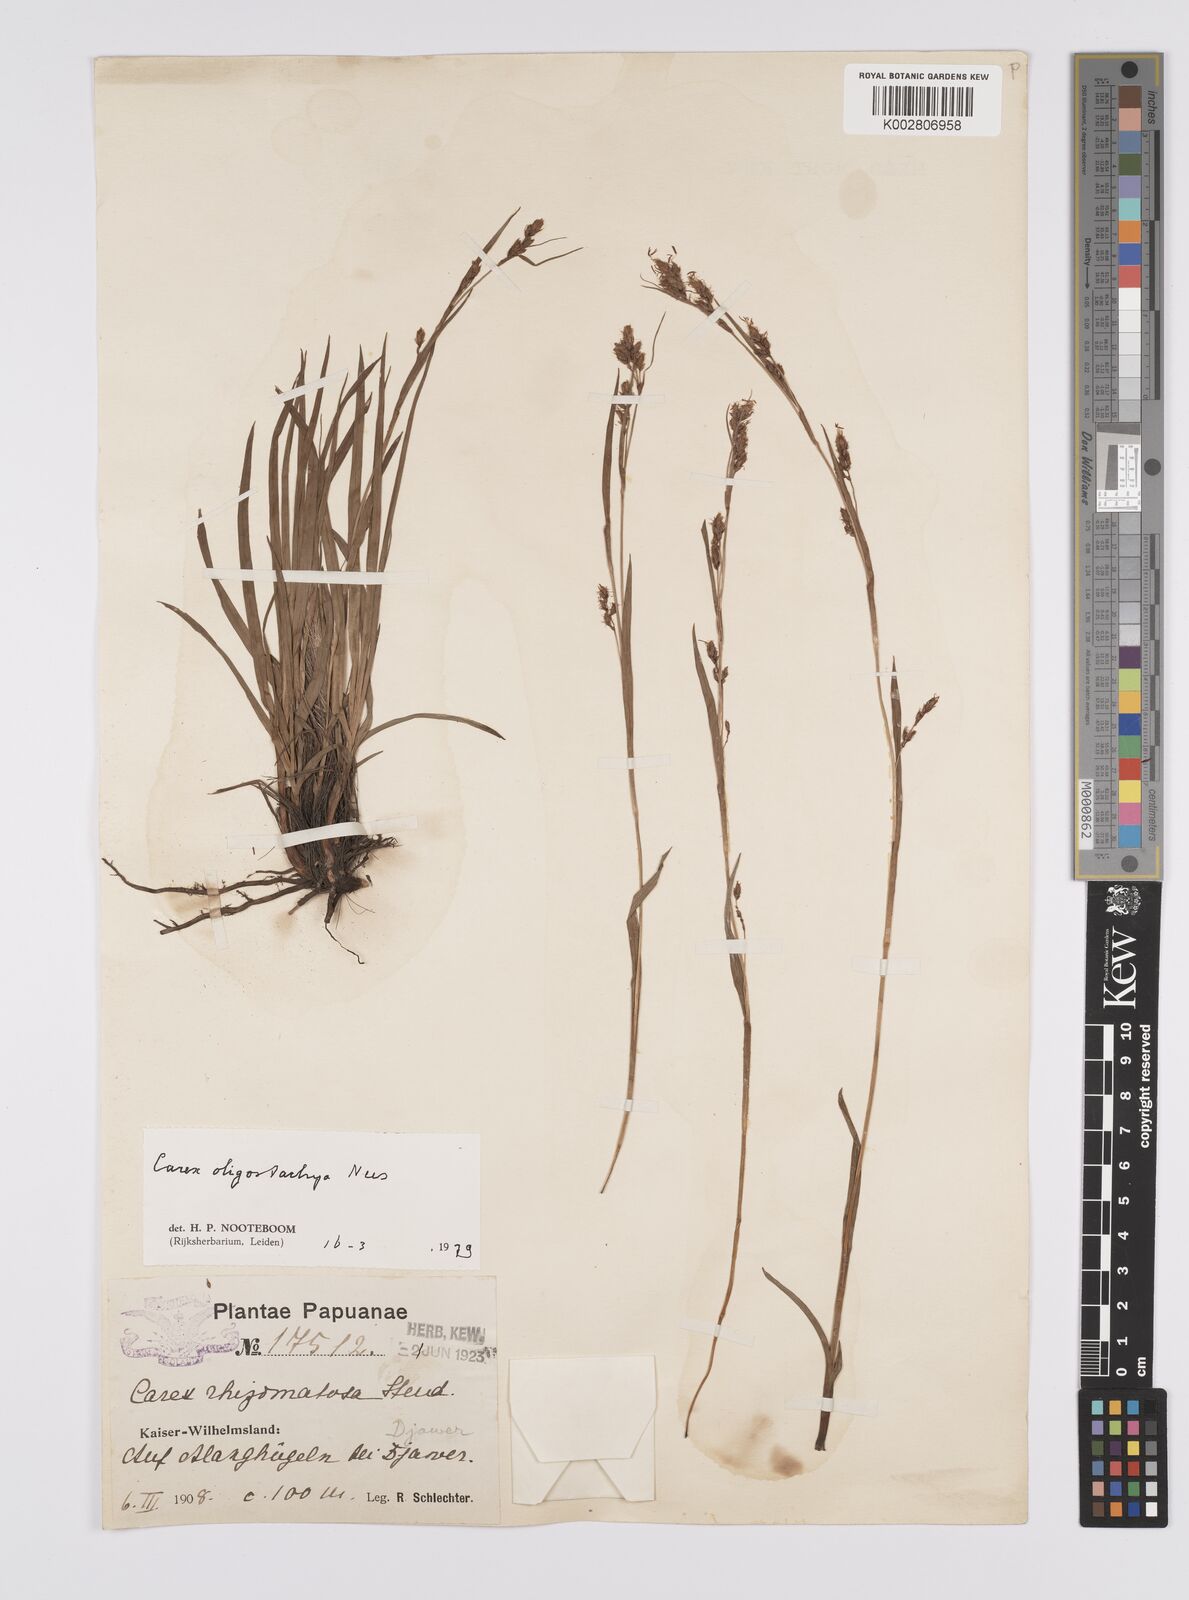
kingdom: Plantae
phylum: Tracheophyta
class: Liliopsida
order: Poales
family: Cyperaceae
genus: Carex
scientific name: Carex oligostachya
